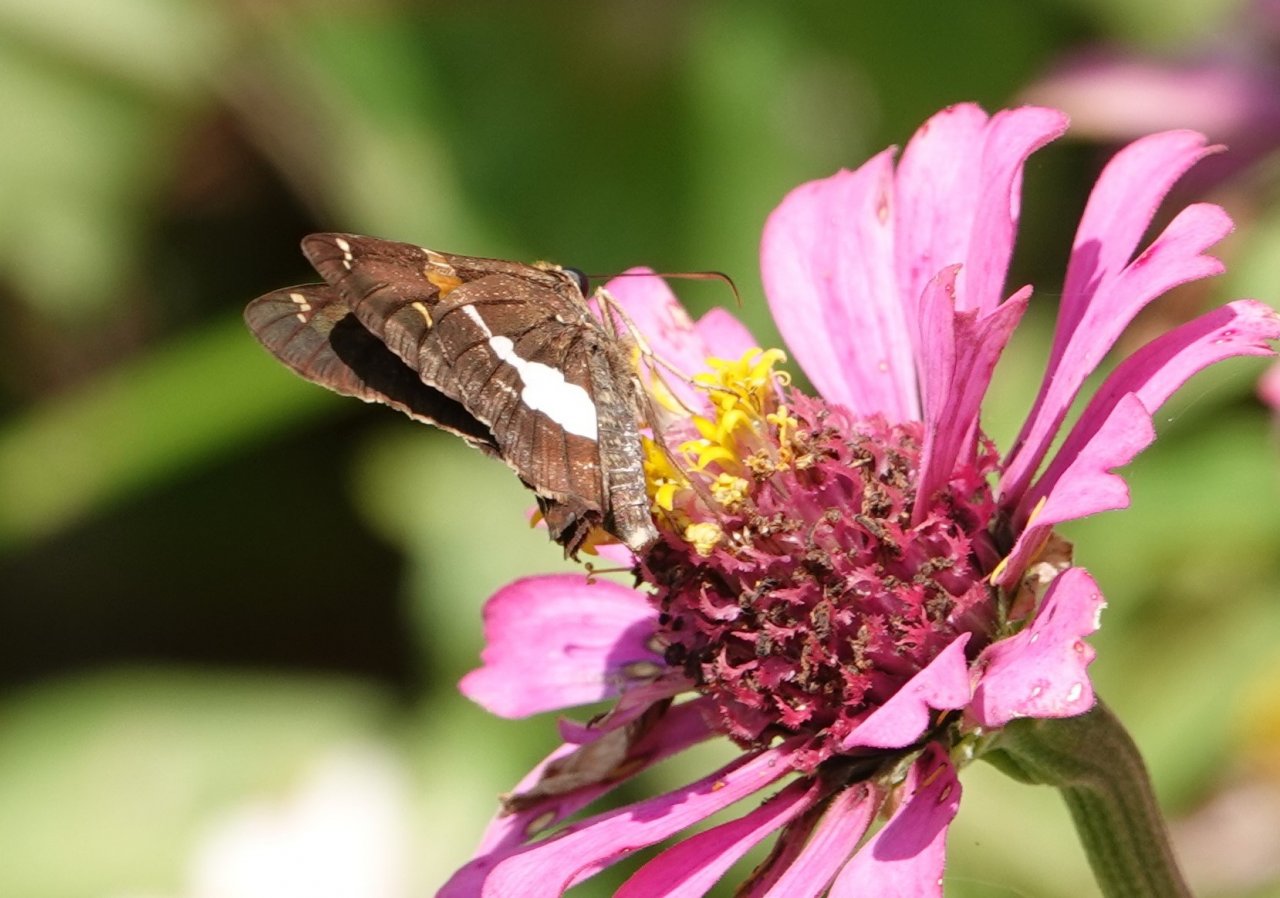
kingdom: Animalia
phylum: Arthropoda
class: Insecta
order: Lepidoptera
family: Hesperiidae
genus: Epargyreus
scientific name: Epargyreus clarus
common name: Silver-spotted Skipper
